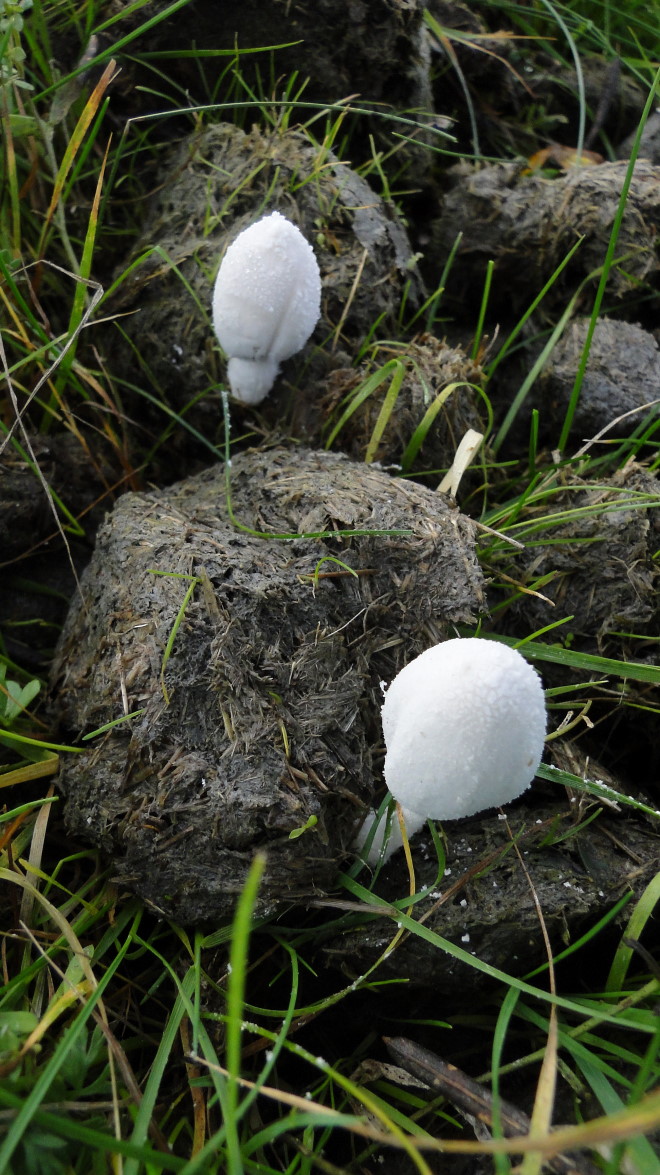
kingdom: Fungi
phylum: Basidiomycota
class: Agaricomycetes
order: Agaricales
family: Psathyrellaceae
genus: Coprinopsis
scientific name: Coprinopsis nivea
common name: snehvid blækhat
